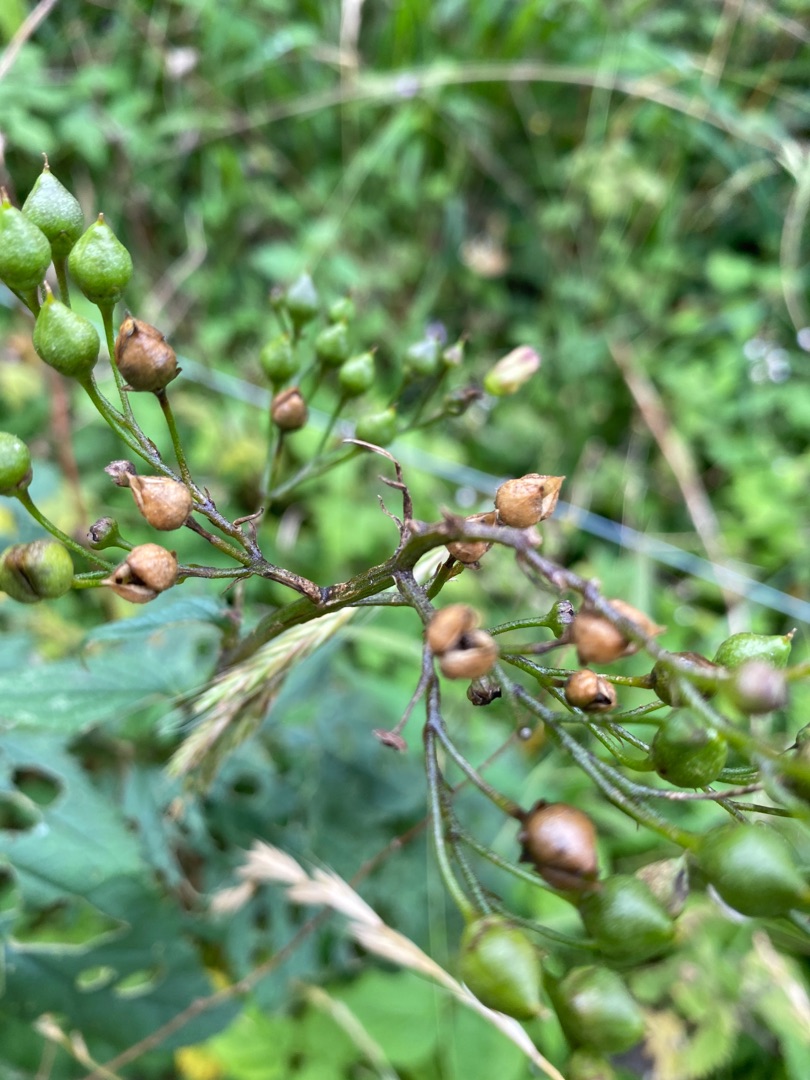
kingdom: Plantae
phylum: Tracheophyta
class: Magnoliopsida
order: Lamiales
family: Scrophulariaceae
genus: Scrophularia
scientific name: Scrophularia nodosa
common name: Knoldet brunrod
